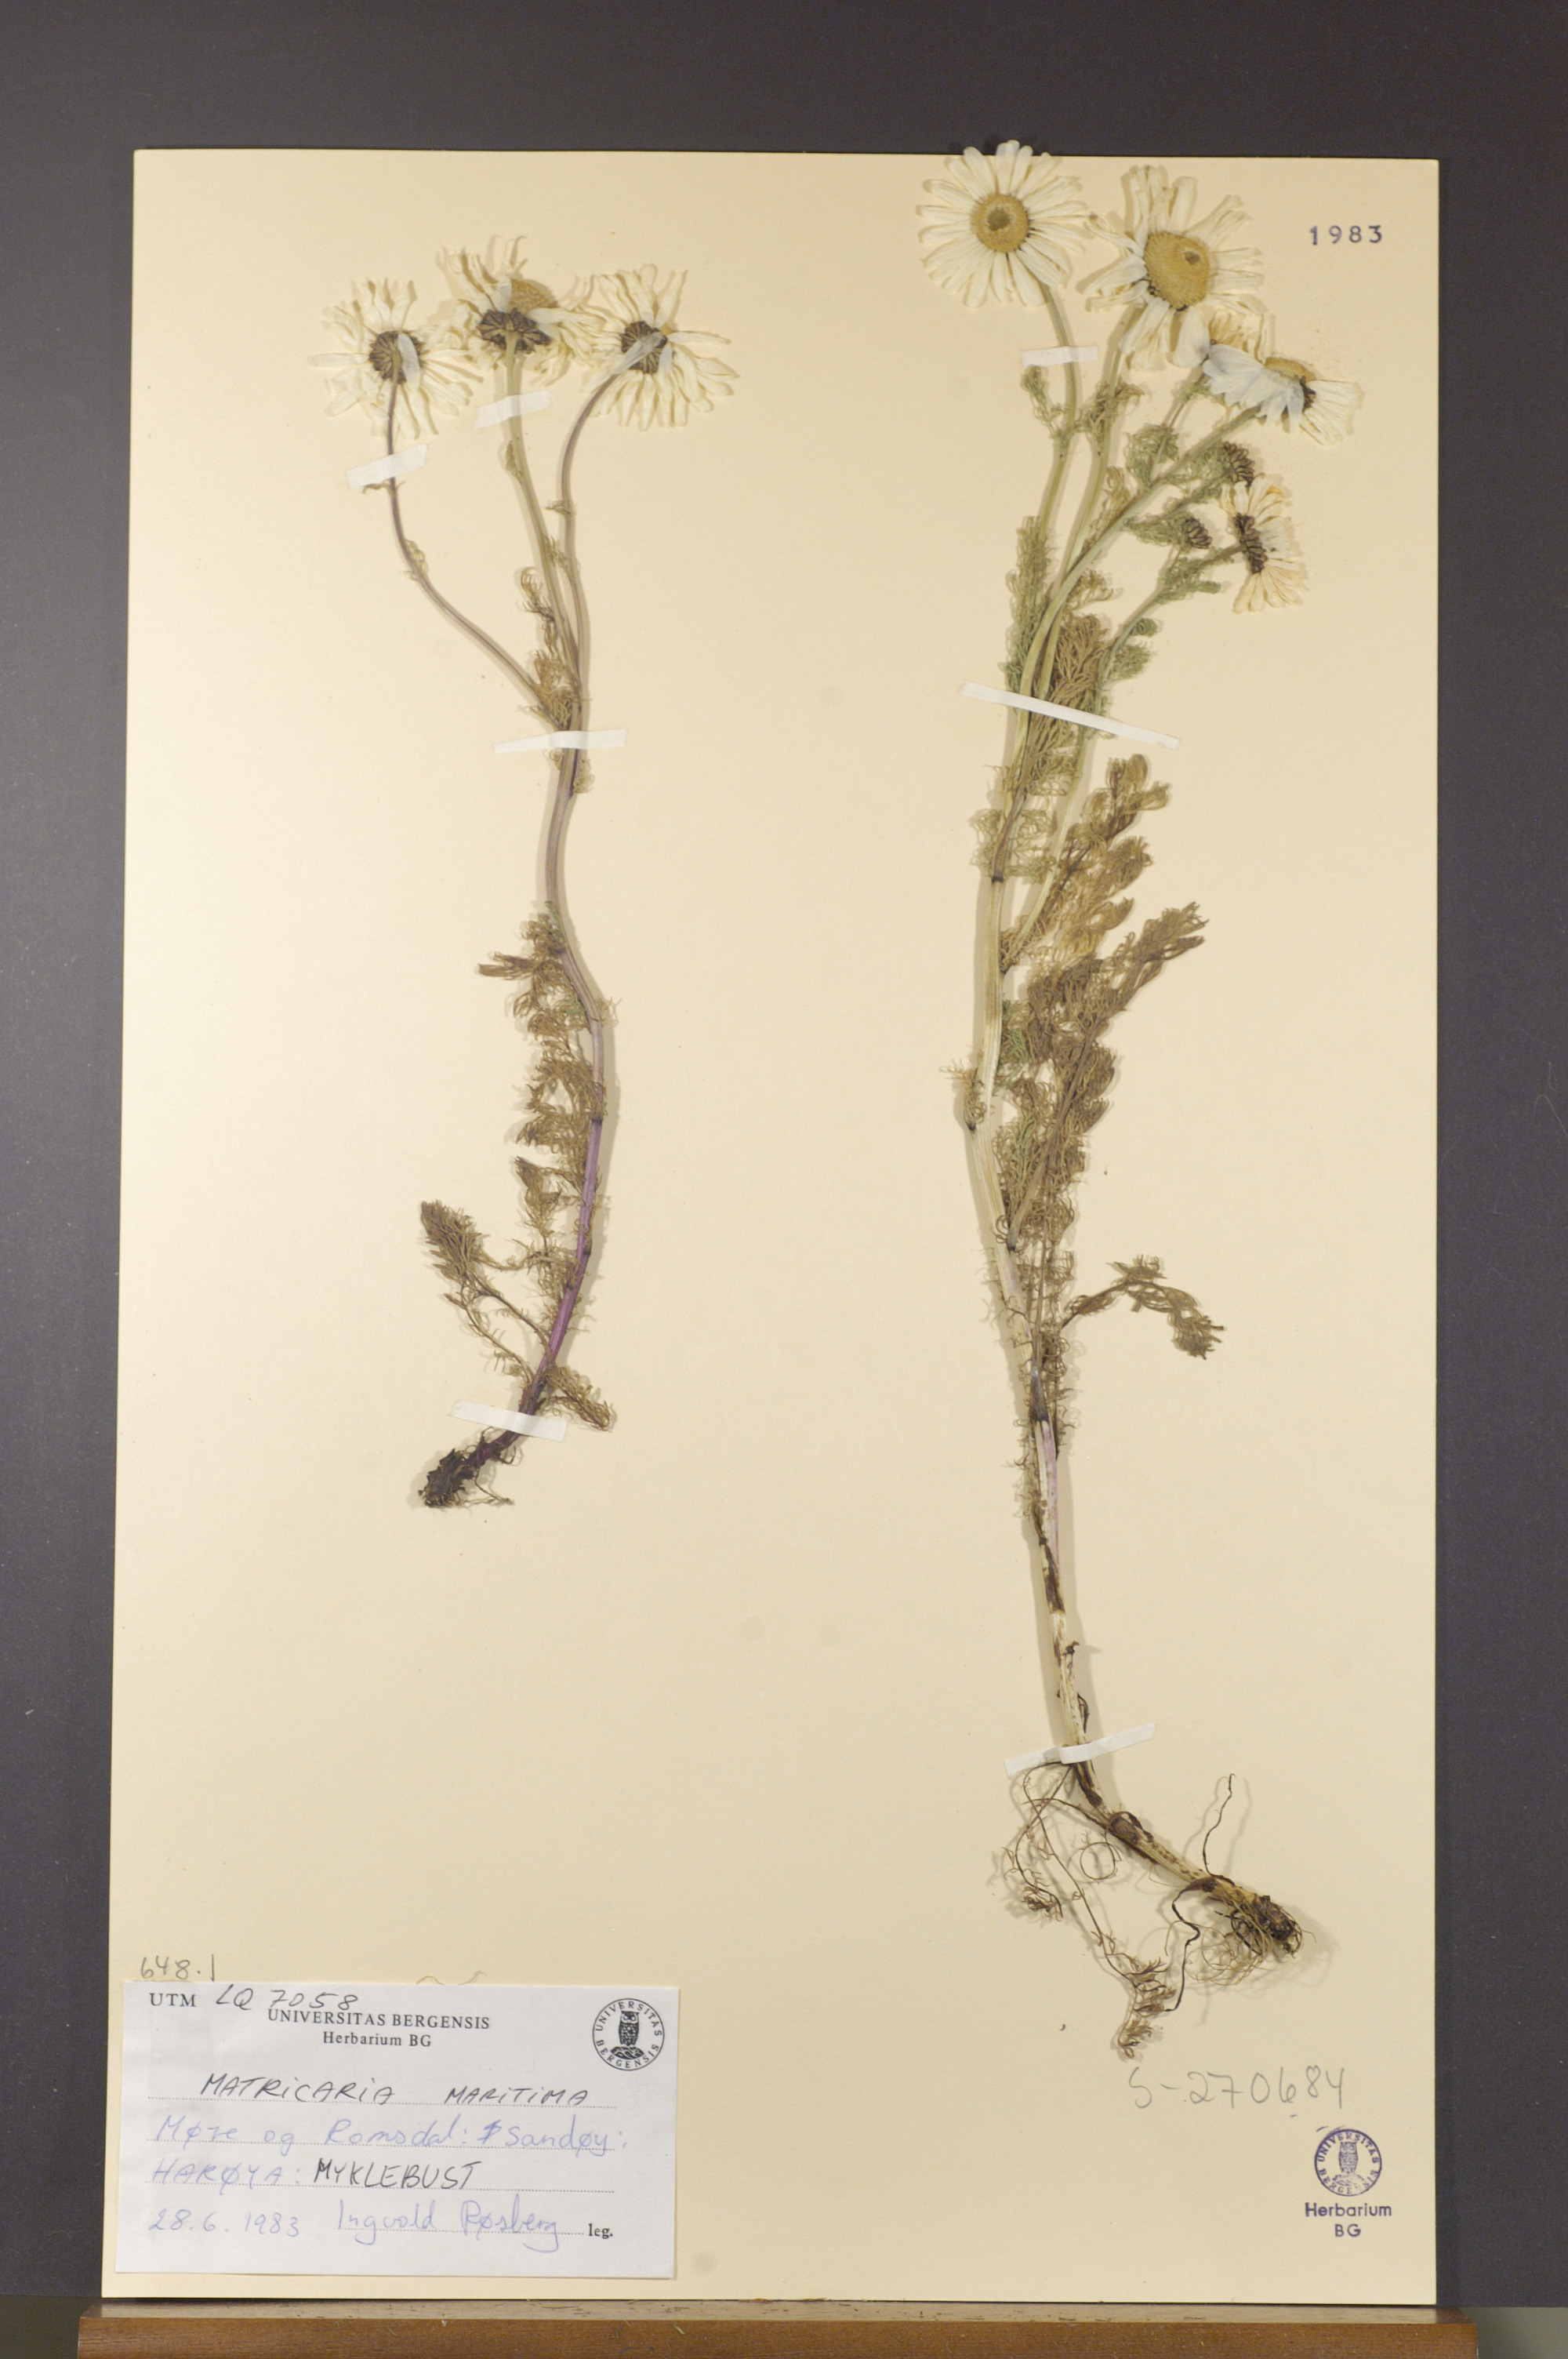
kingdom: Plantae
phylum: Tracheophyta
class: Magnoliopsida
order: Asterales
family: Asteraceae
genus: Tripleurospermum
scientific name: Tripleurospermum subpolare
